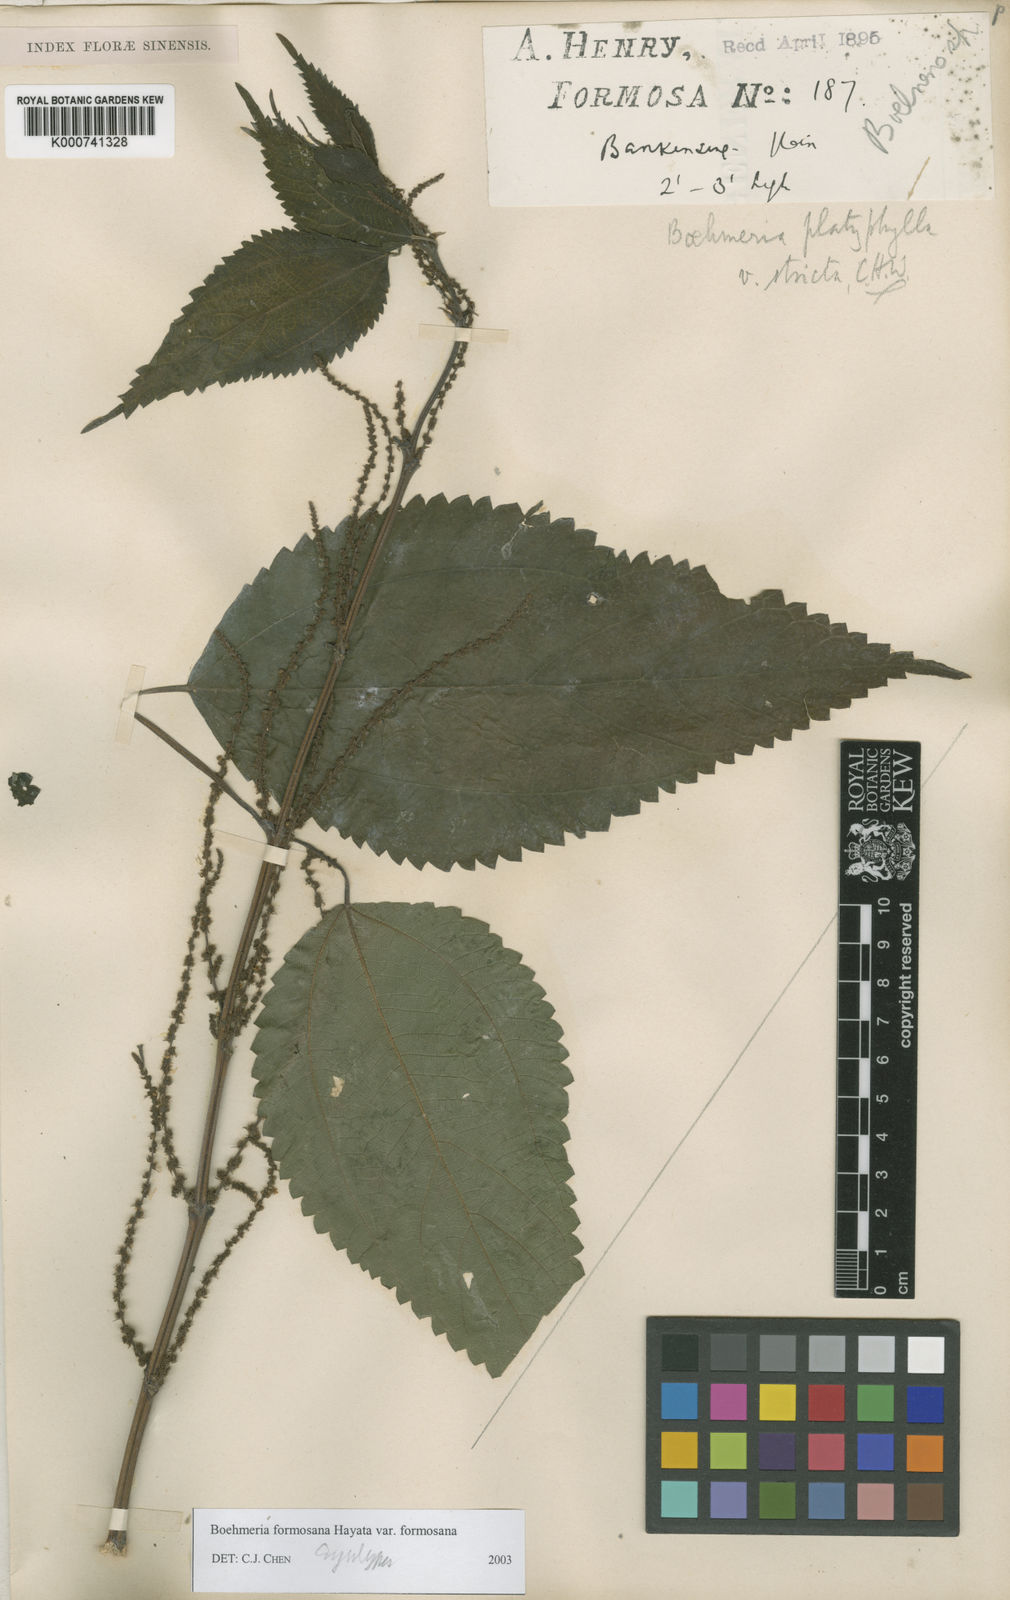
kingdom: Plantae
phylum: Tracheophyta
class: Magnoliopsida
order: Rosales
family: Urticaceae
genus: Boehmeria
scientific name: Boehmeria sieboldiana
